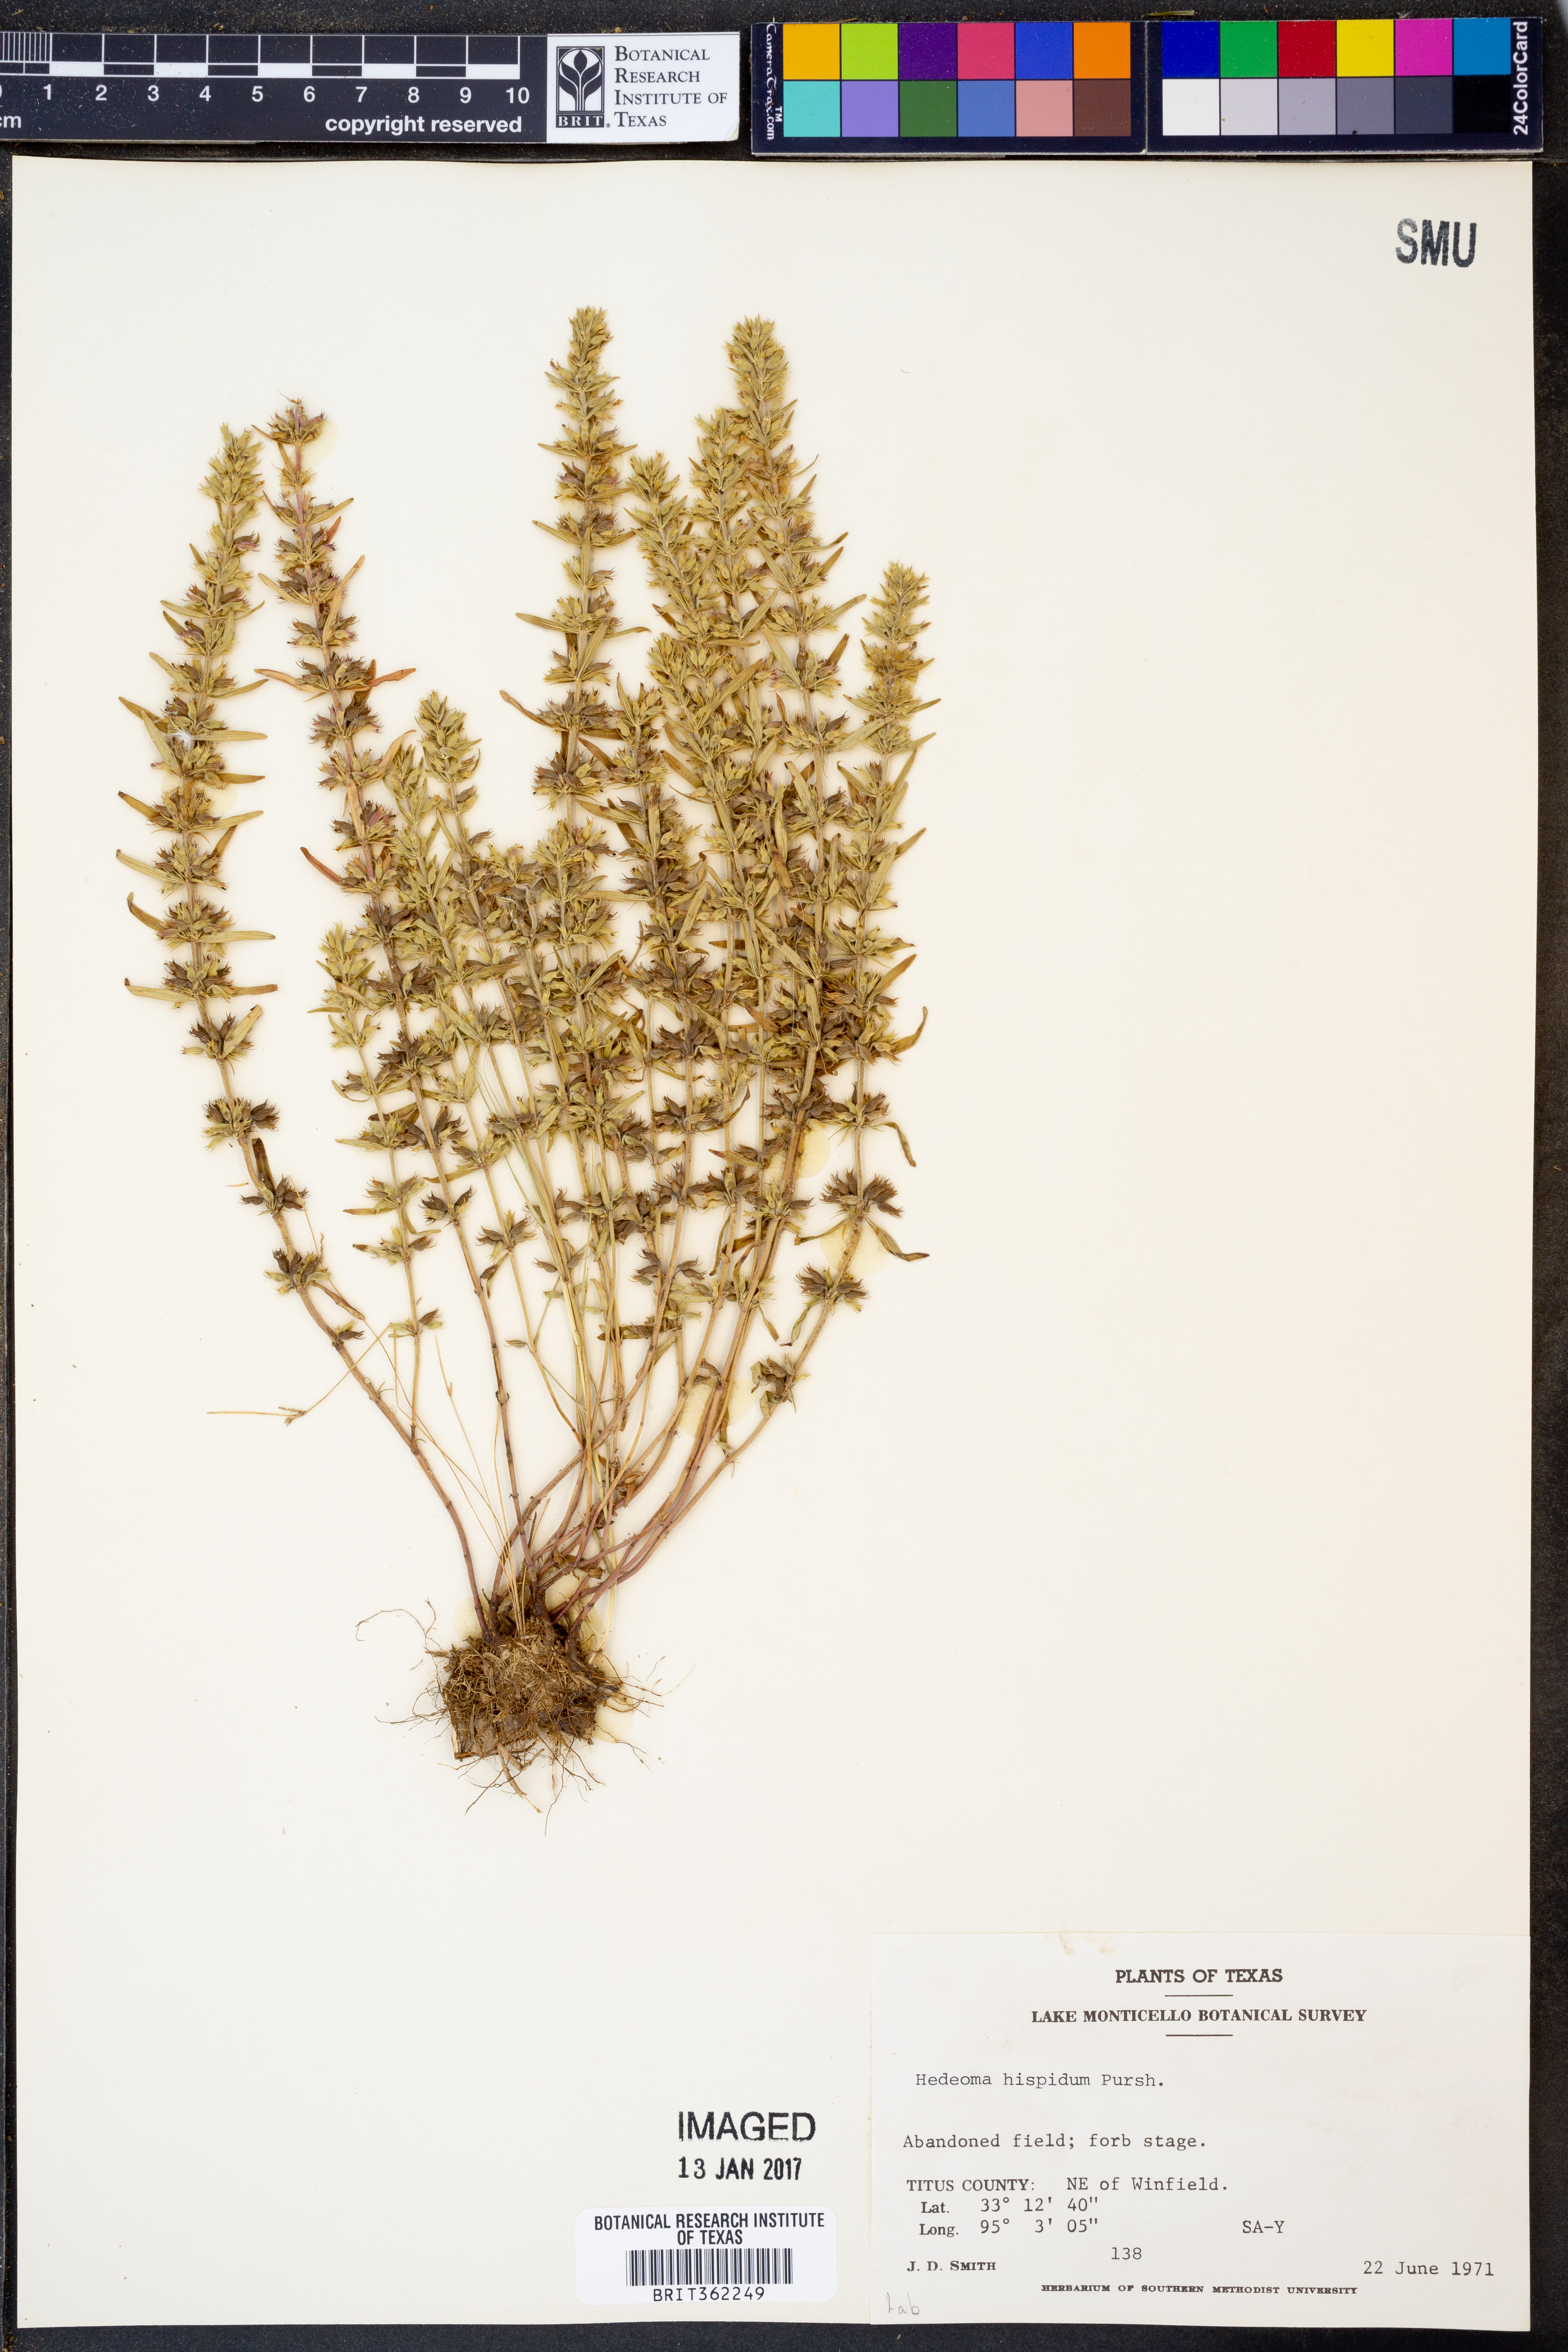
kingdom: Plantae
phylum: Tracheophyta
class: Magnoliopsida
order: Lamiales
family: Lamiaceae
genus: Hedeoma
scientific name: Hedeoma hispida
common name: Mock pennyroyal
